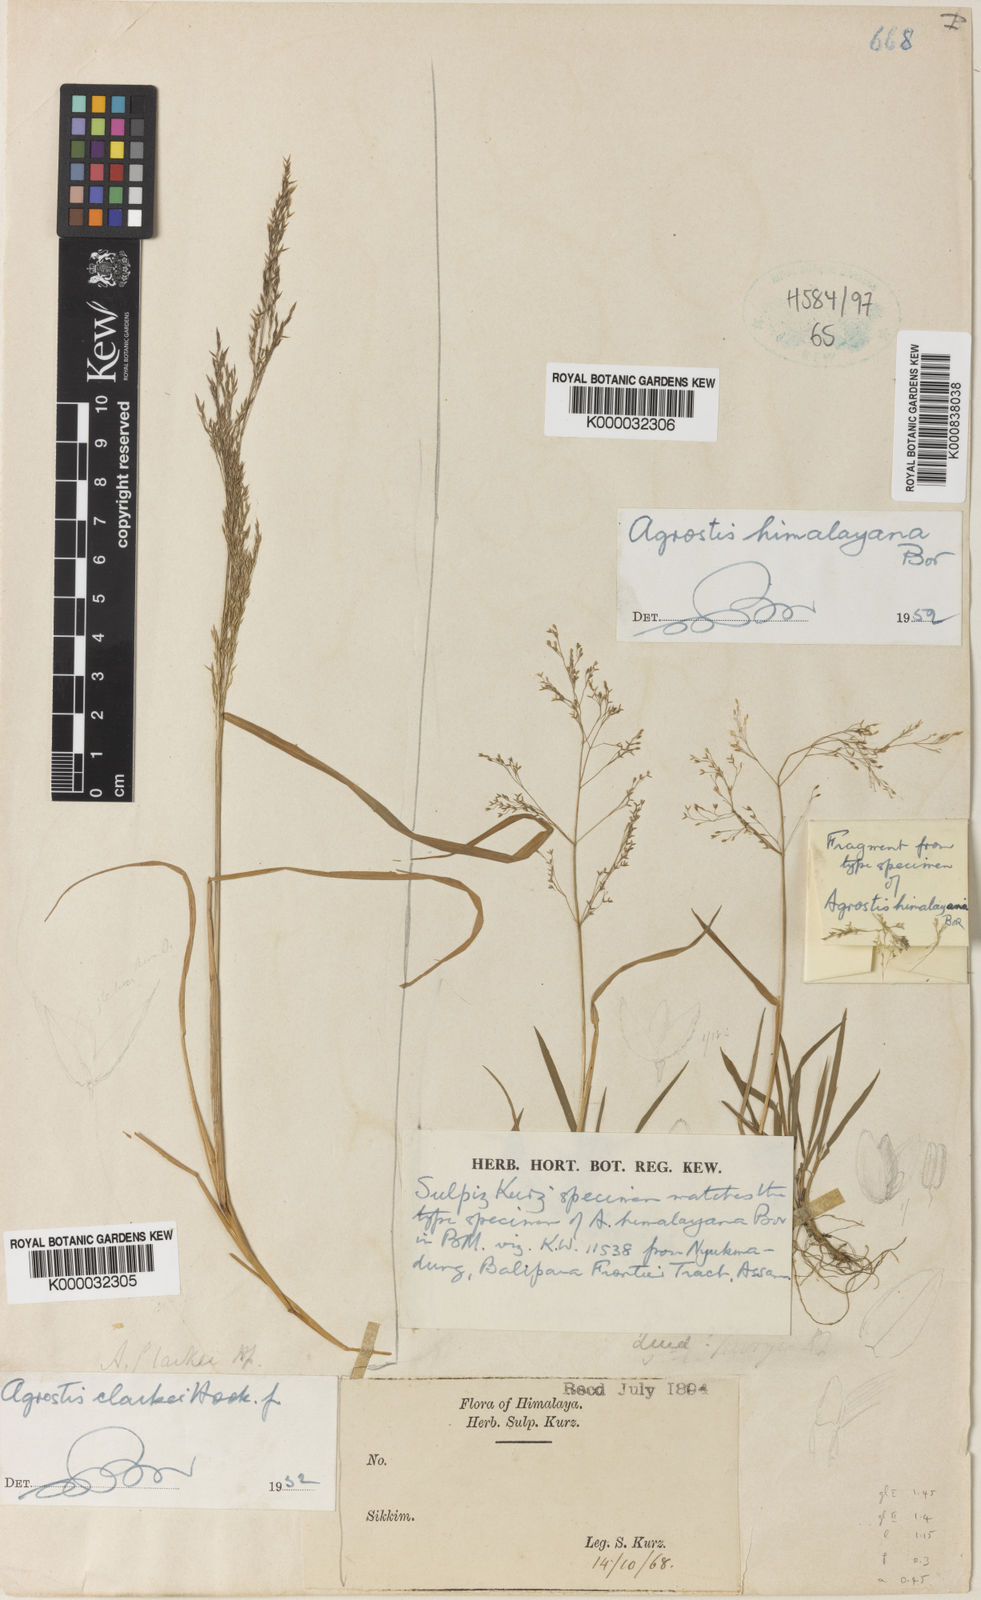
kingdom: Plantae
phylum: Tracheophyta
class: Liliopsida
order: Poales
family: Poaceae
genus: Agrostis
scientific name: Agrostis micrantha
